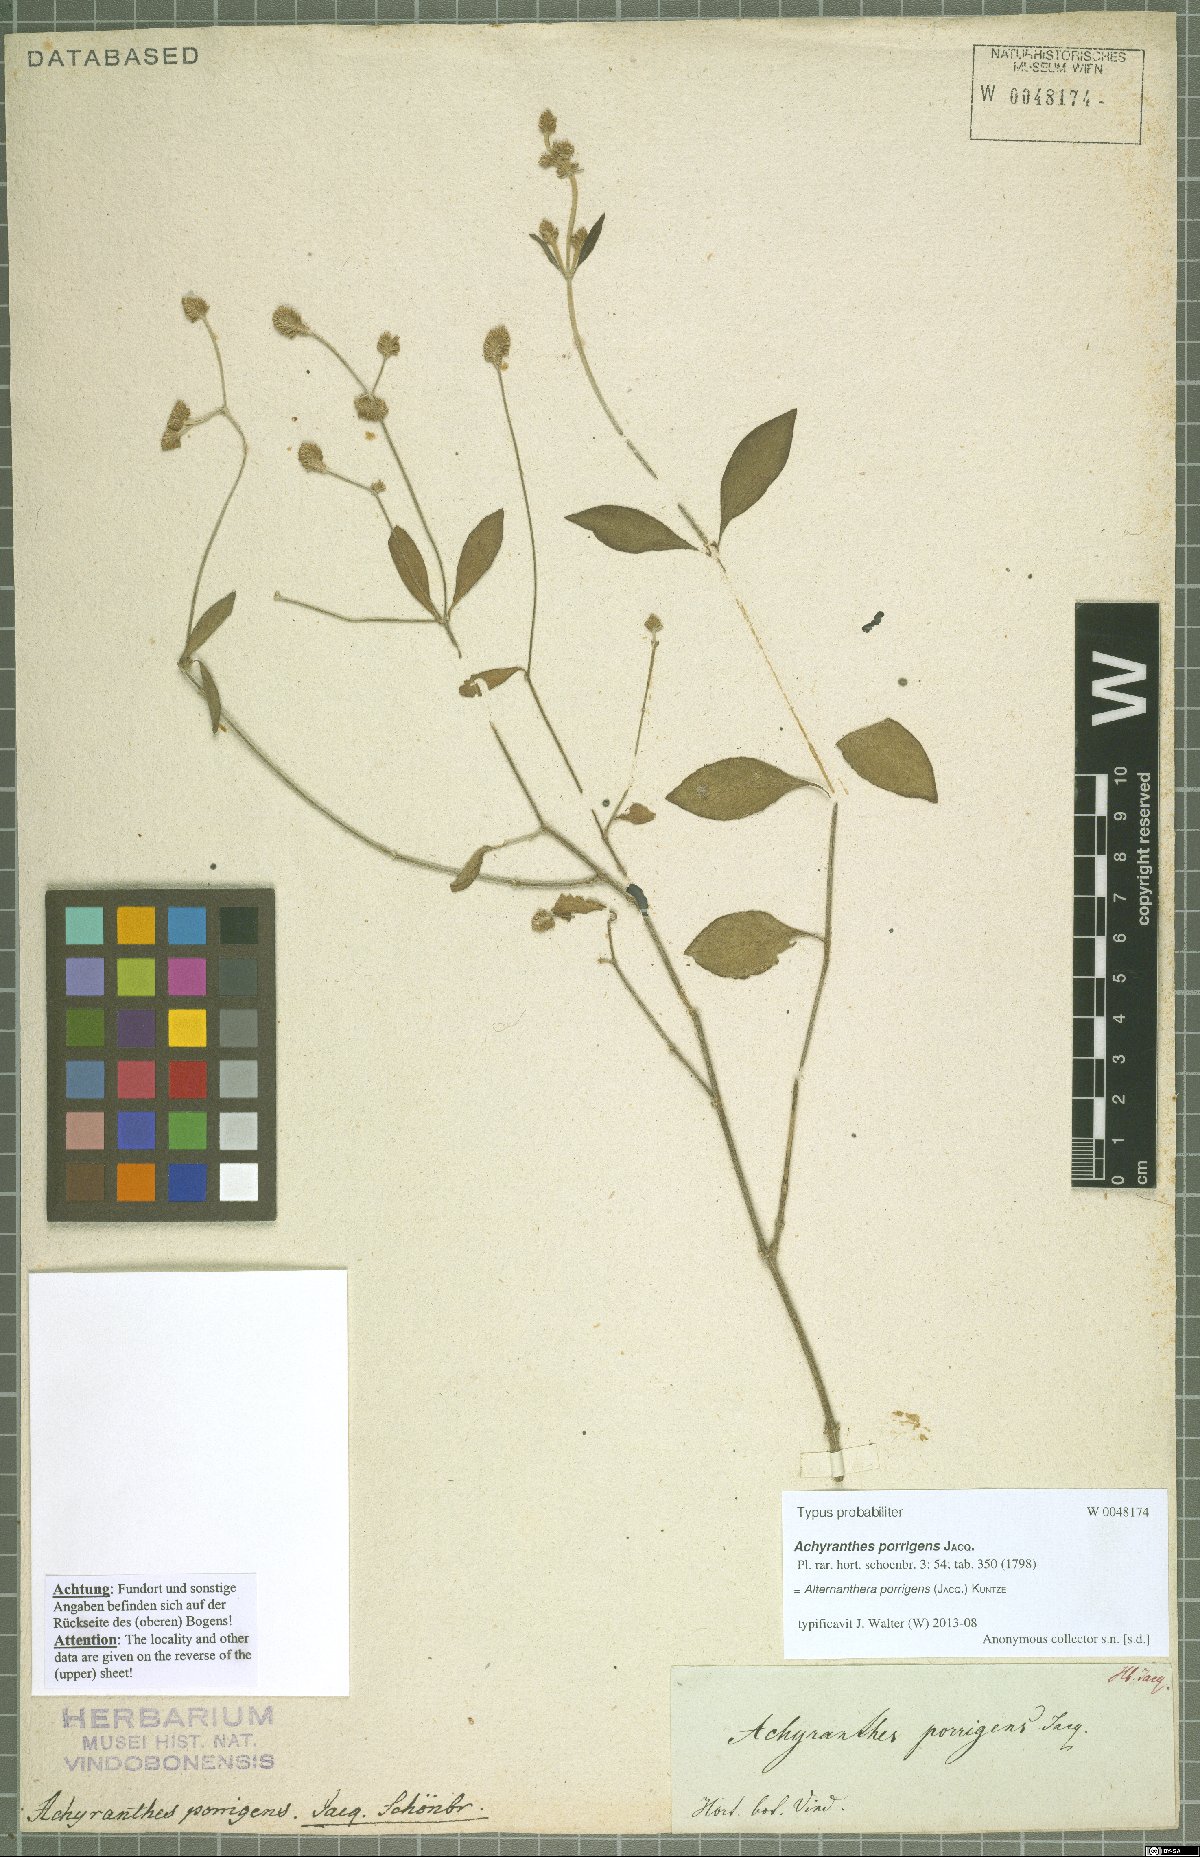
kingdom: Plantae
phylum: Tracheophyta
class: Magnoliopsida
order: Caryophyllales
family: Amaranthaceae
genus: Alternanthera
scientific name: Alternanthera porrigens
